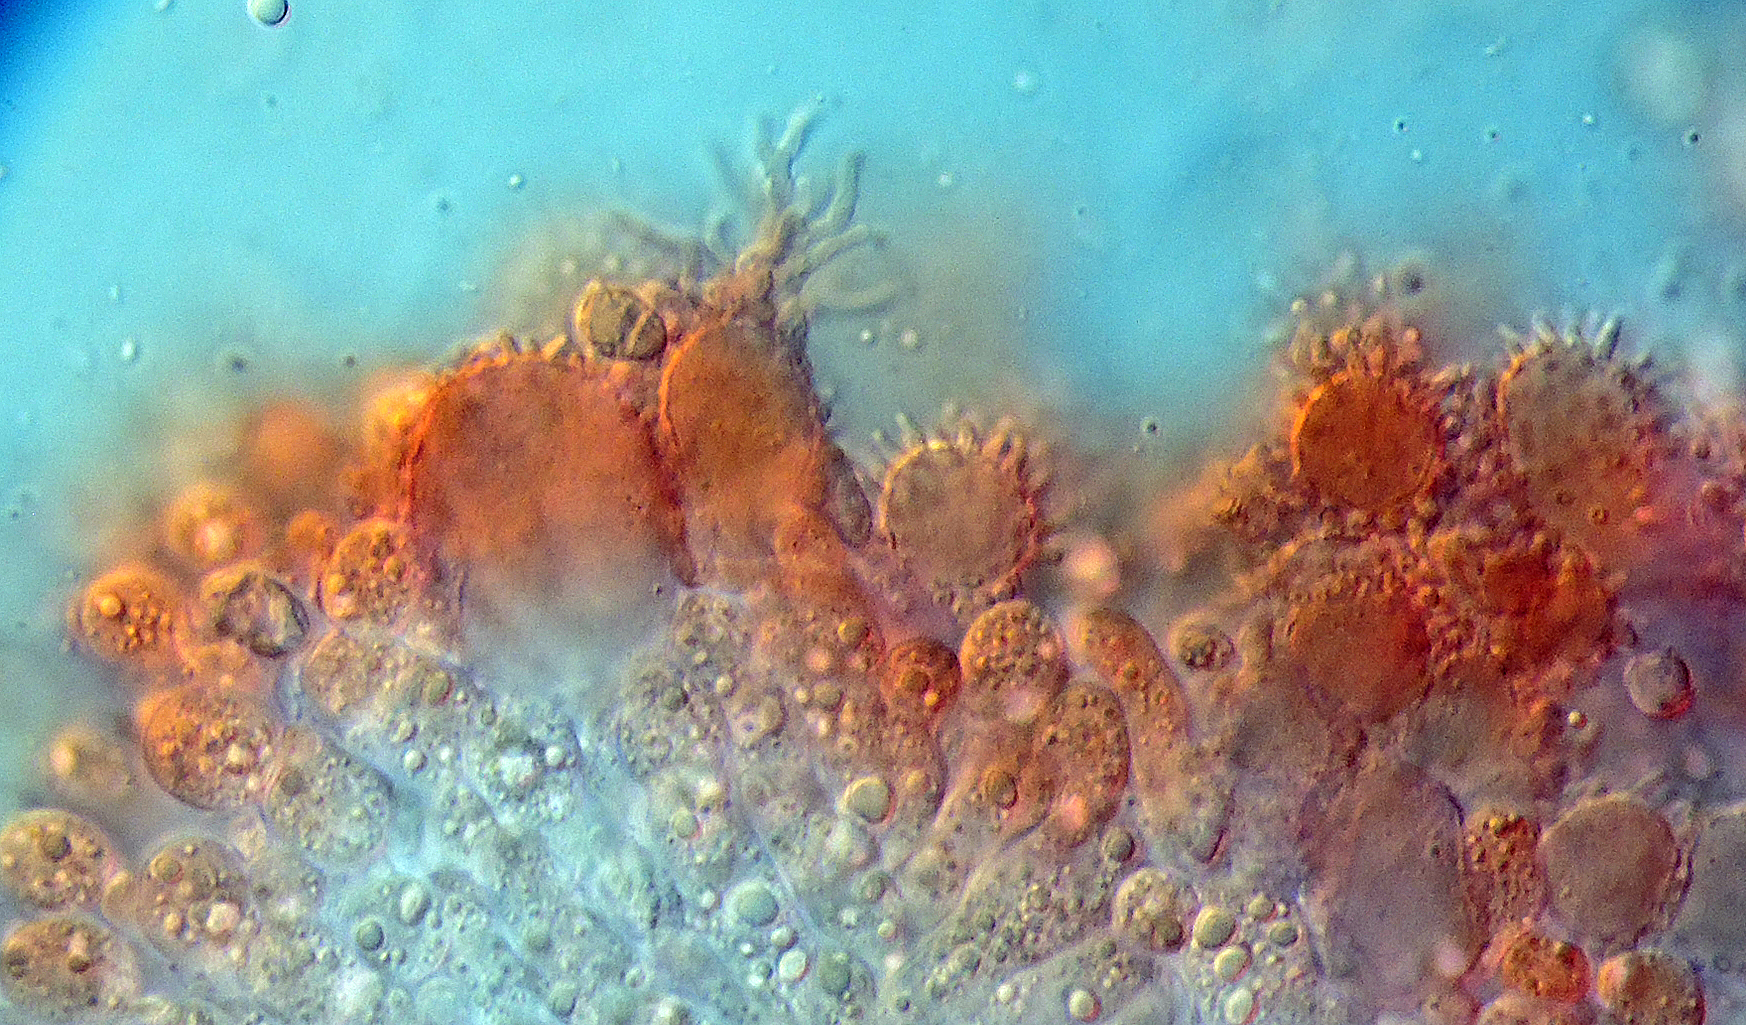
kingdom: Fungi
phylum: Basidiomycota
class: Agaricomycetes
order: Agaricales
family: Mycenaceae
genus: Mycena
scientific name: Mycena filopes
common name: Iodine bonnet
